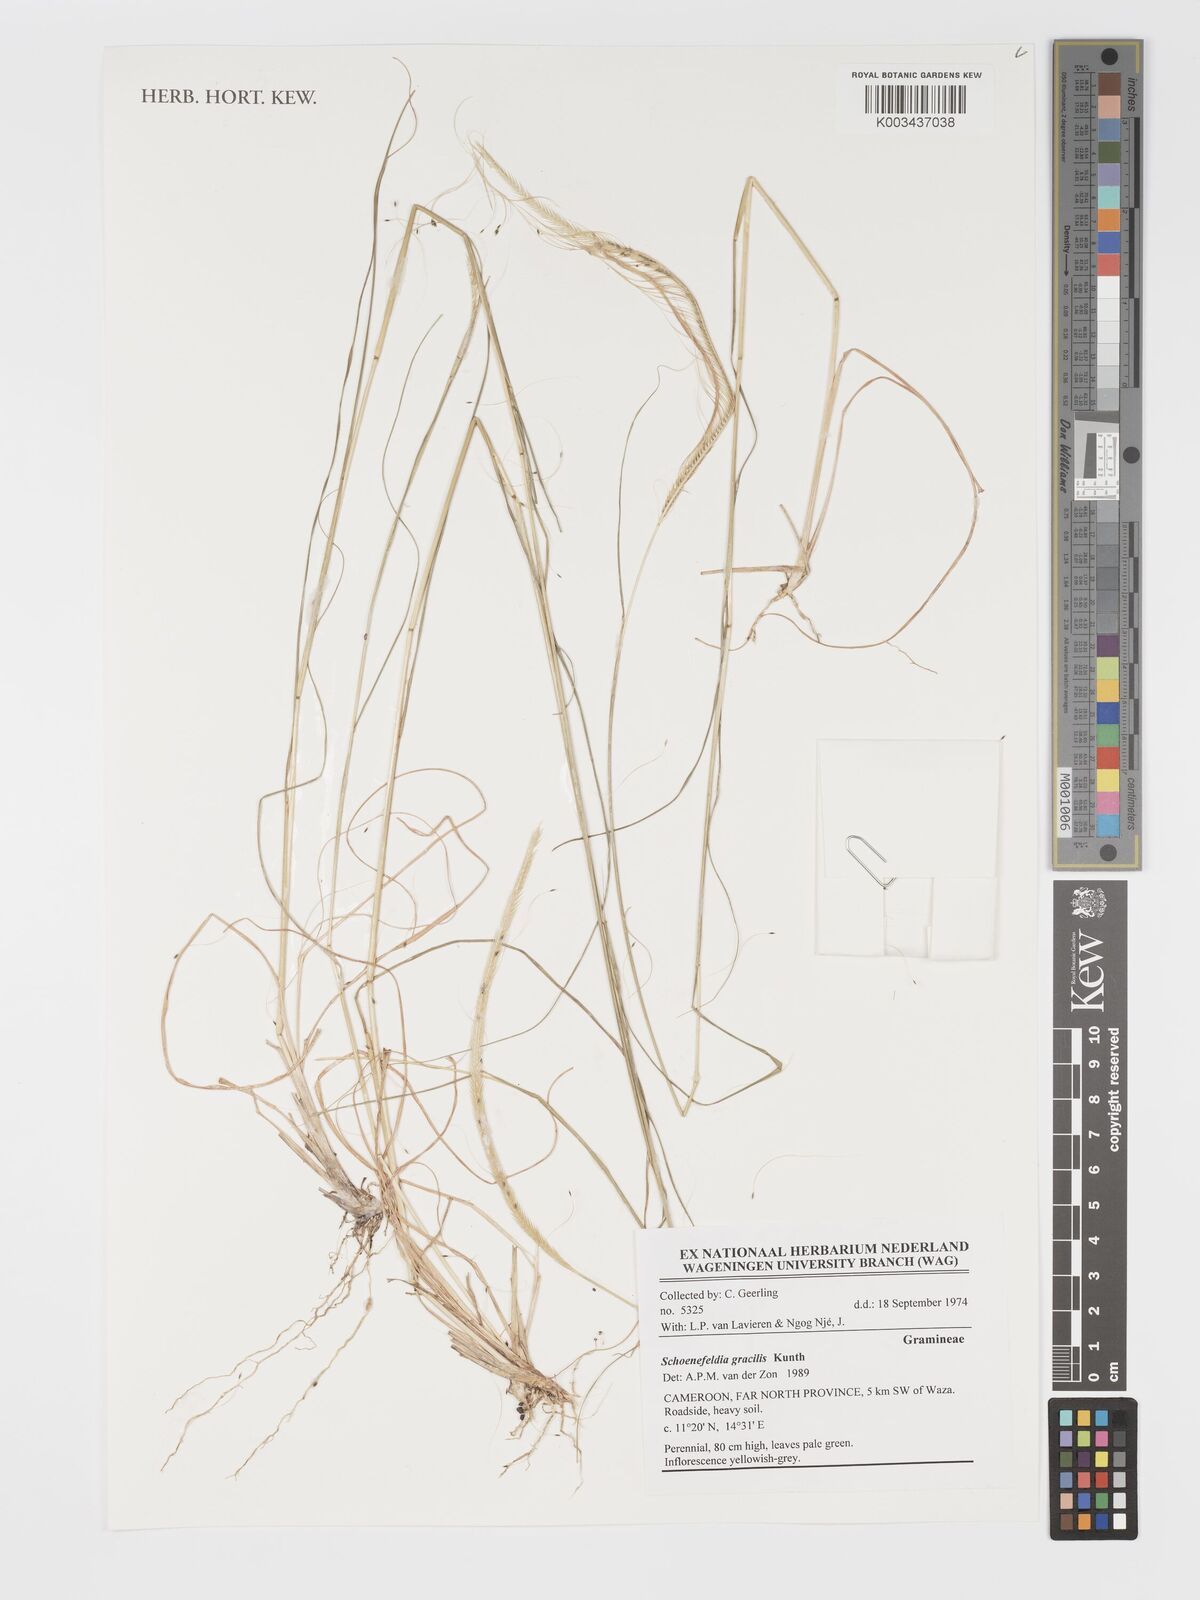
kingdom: Plantae
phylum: Tracheophyta
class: Liliopsida
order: Poales
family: Poaceae
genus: Schoenefeldia
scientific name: Schoenefeldia gracilis
